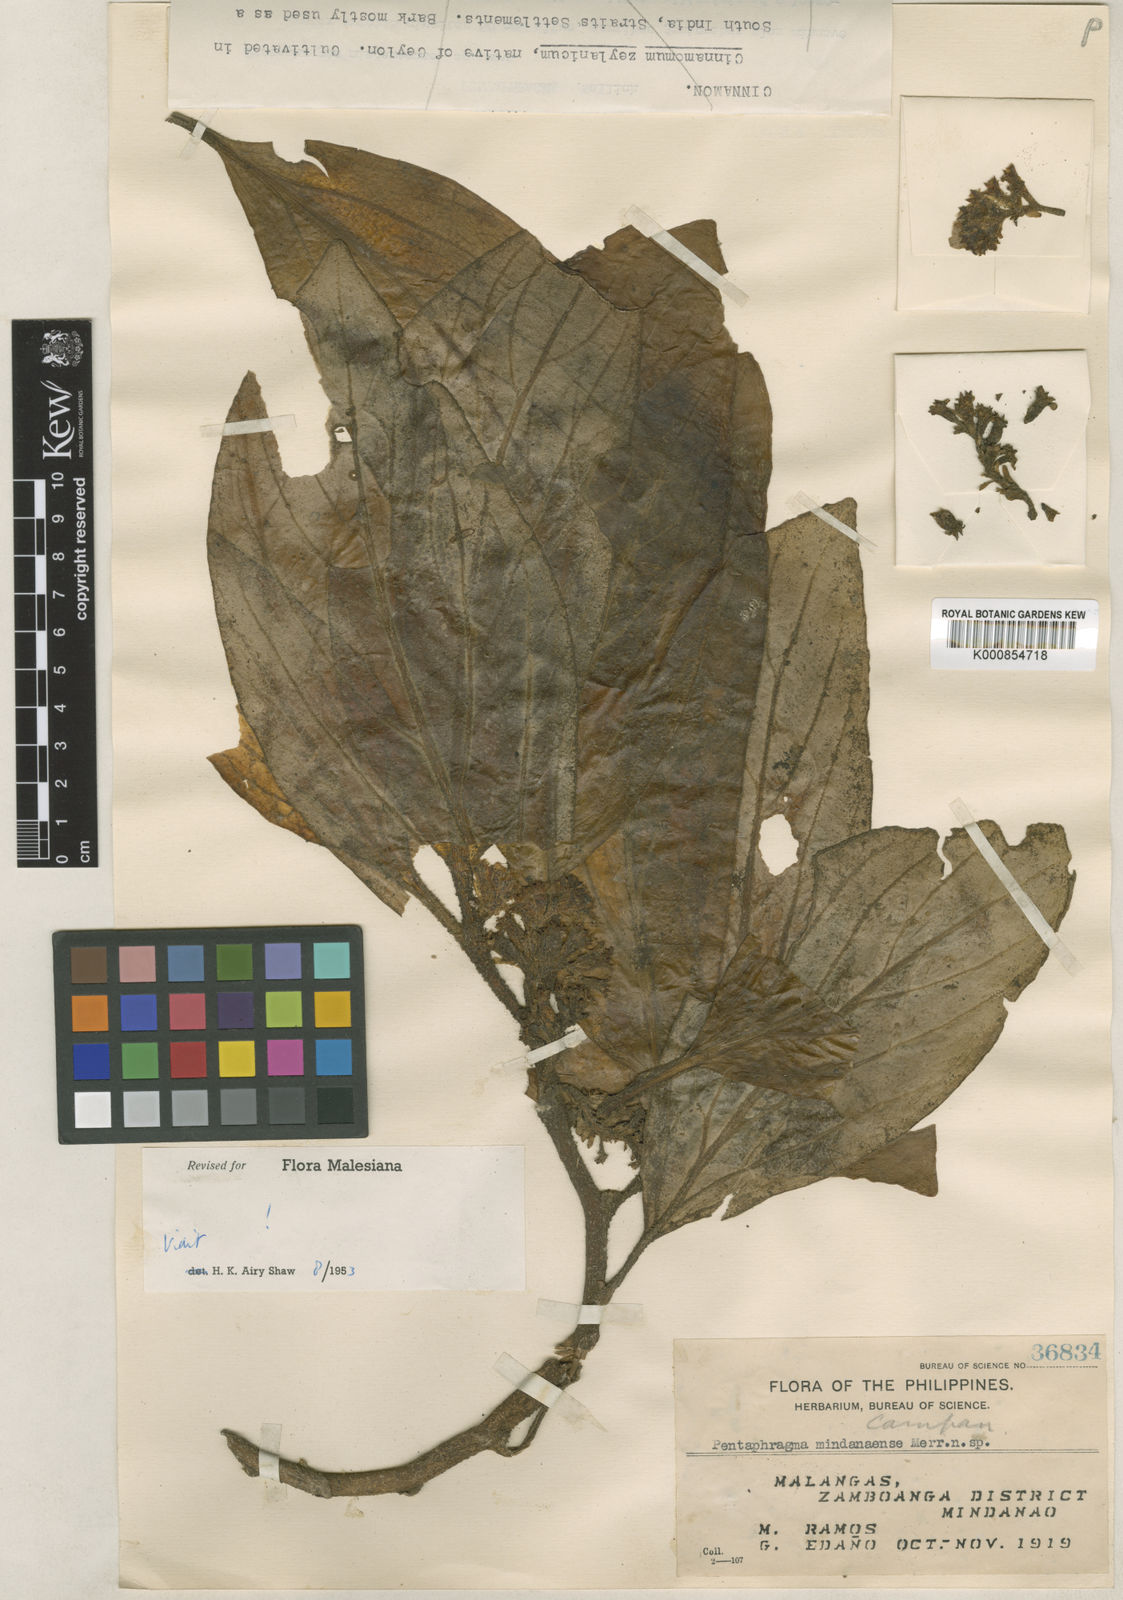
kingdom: Plantae
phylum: Tracheophyta
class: Magnoliopsida
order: Asterales
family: Pentaphragmataceae
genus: Pentaphragma
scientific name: Pentaphragma mindanaense
